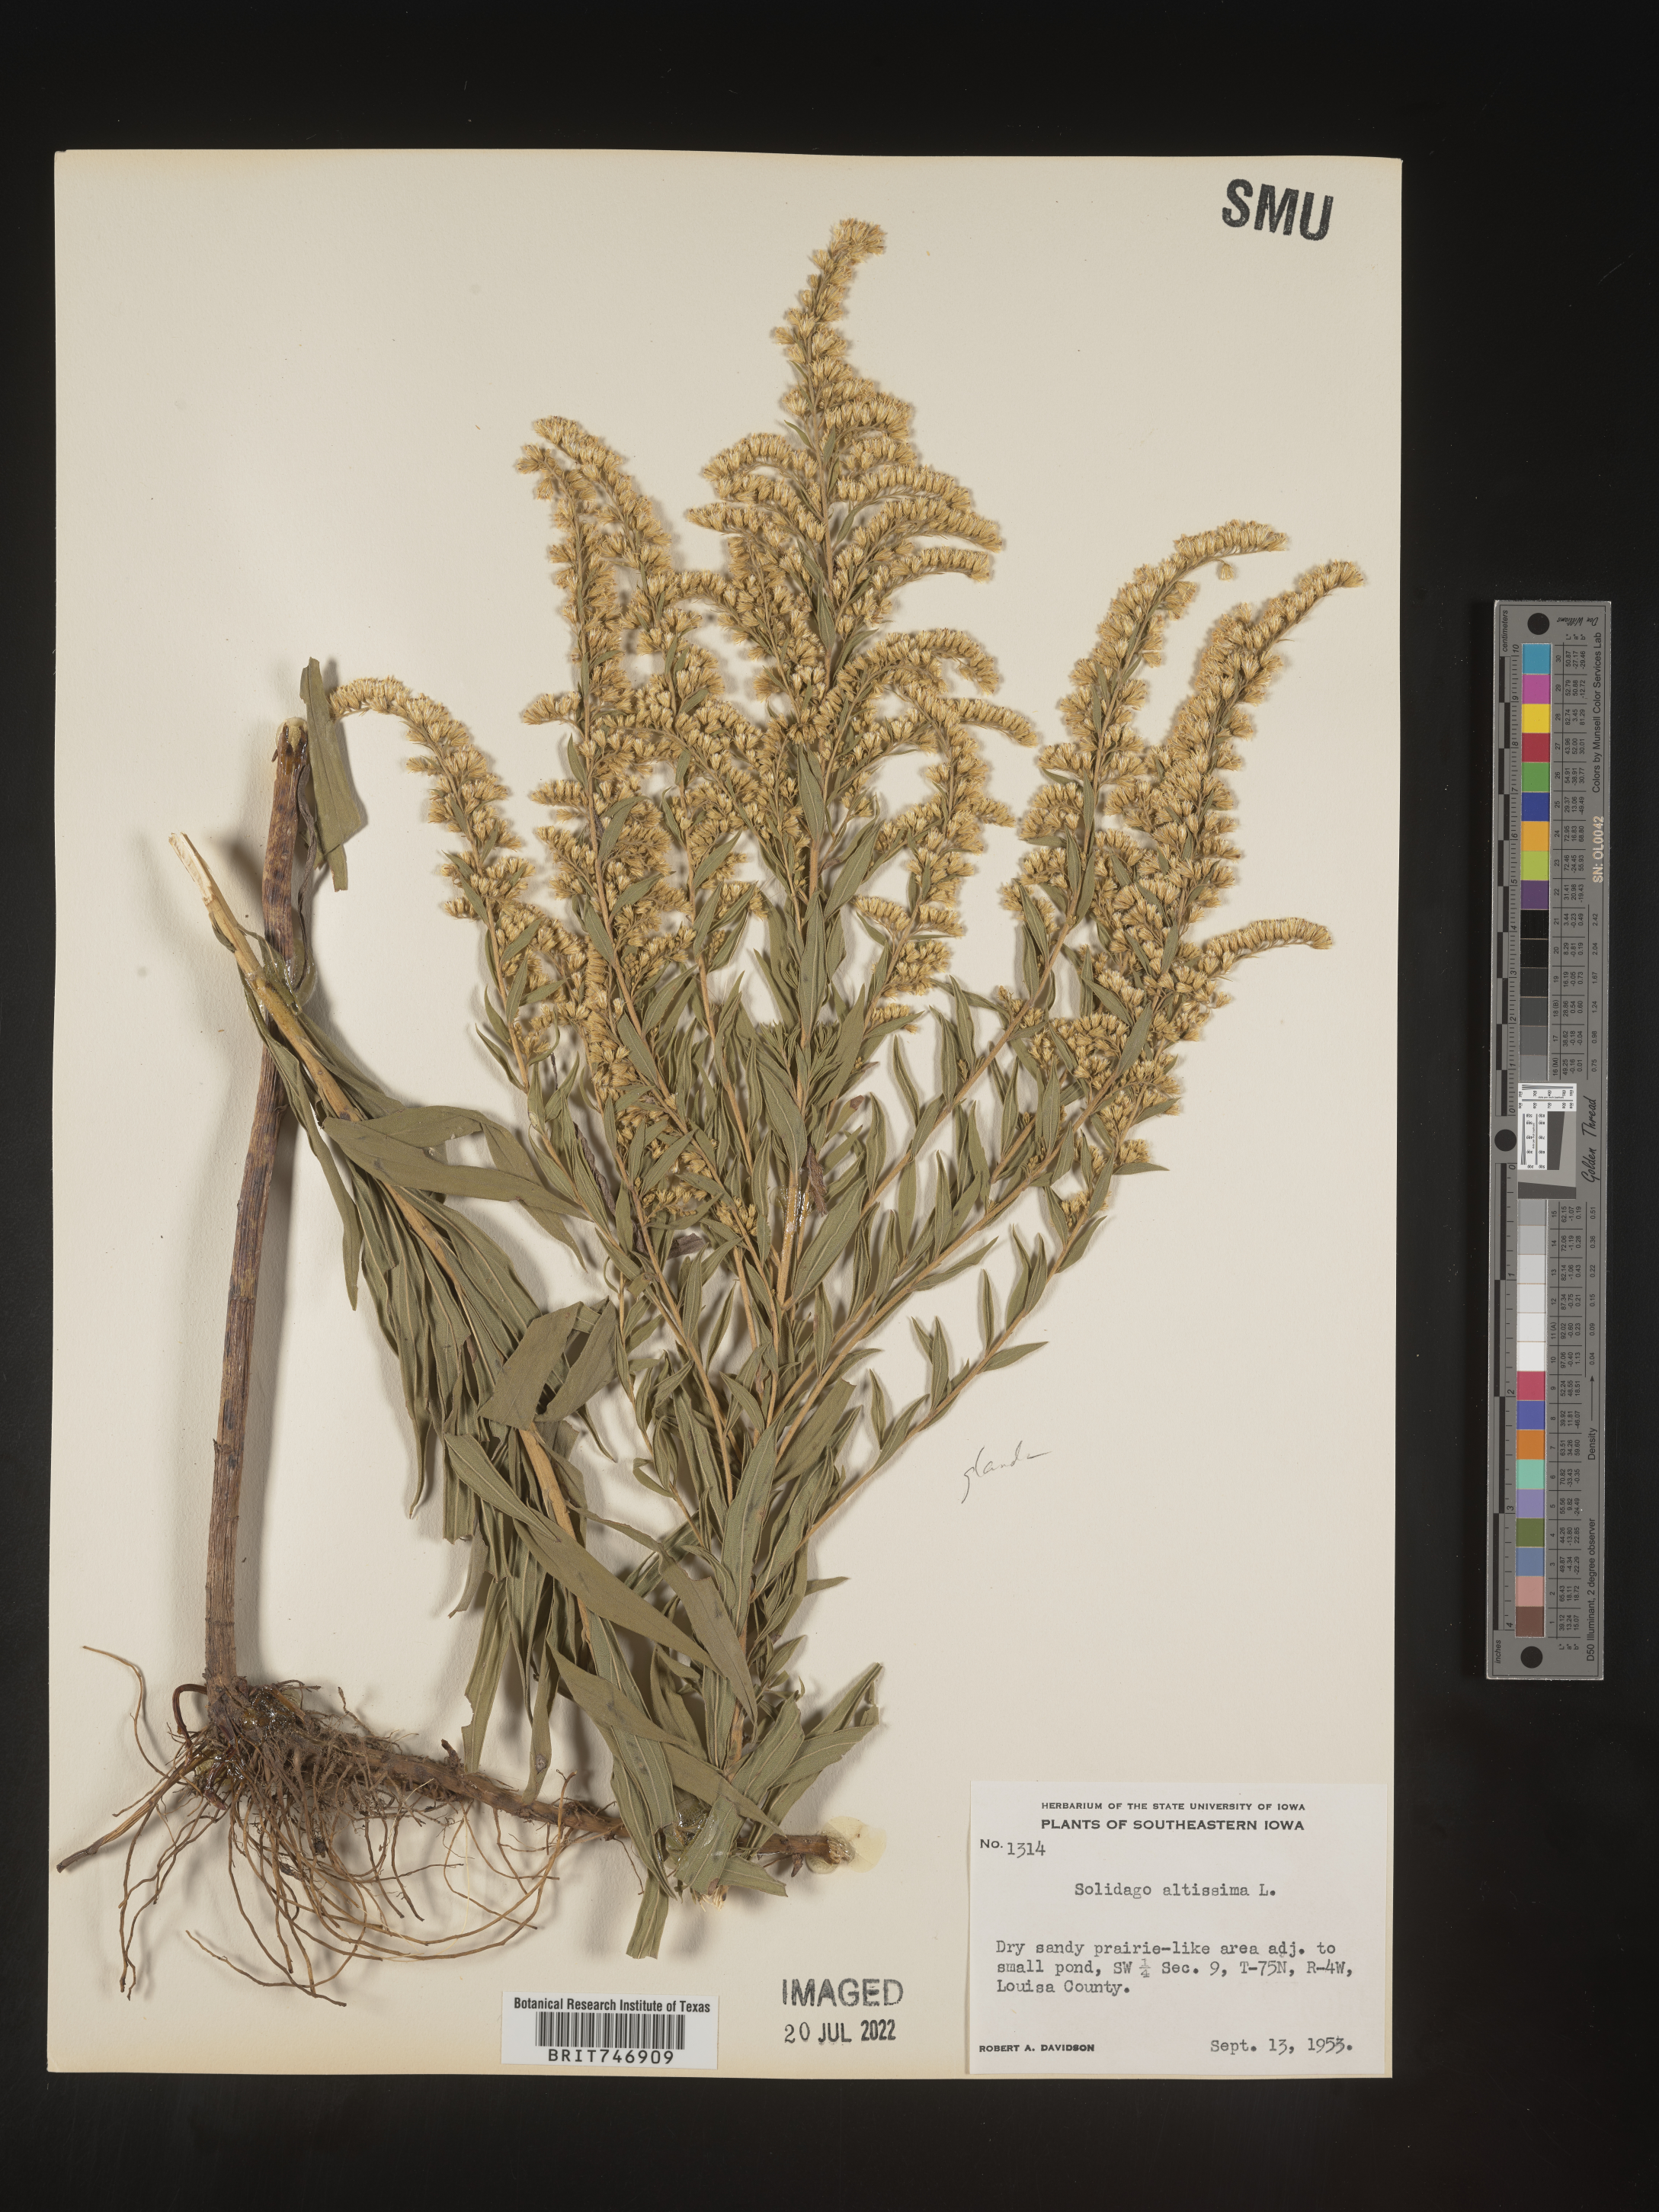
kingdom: Plantae
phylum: Tracheophyta
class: Magnoliopsida
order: Asterales
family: Asteraceae
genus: Solidago
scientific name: Solidago lepida
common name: Western canada goldenrod
